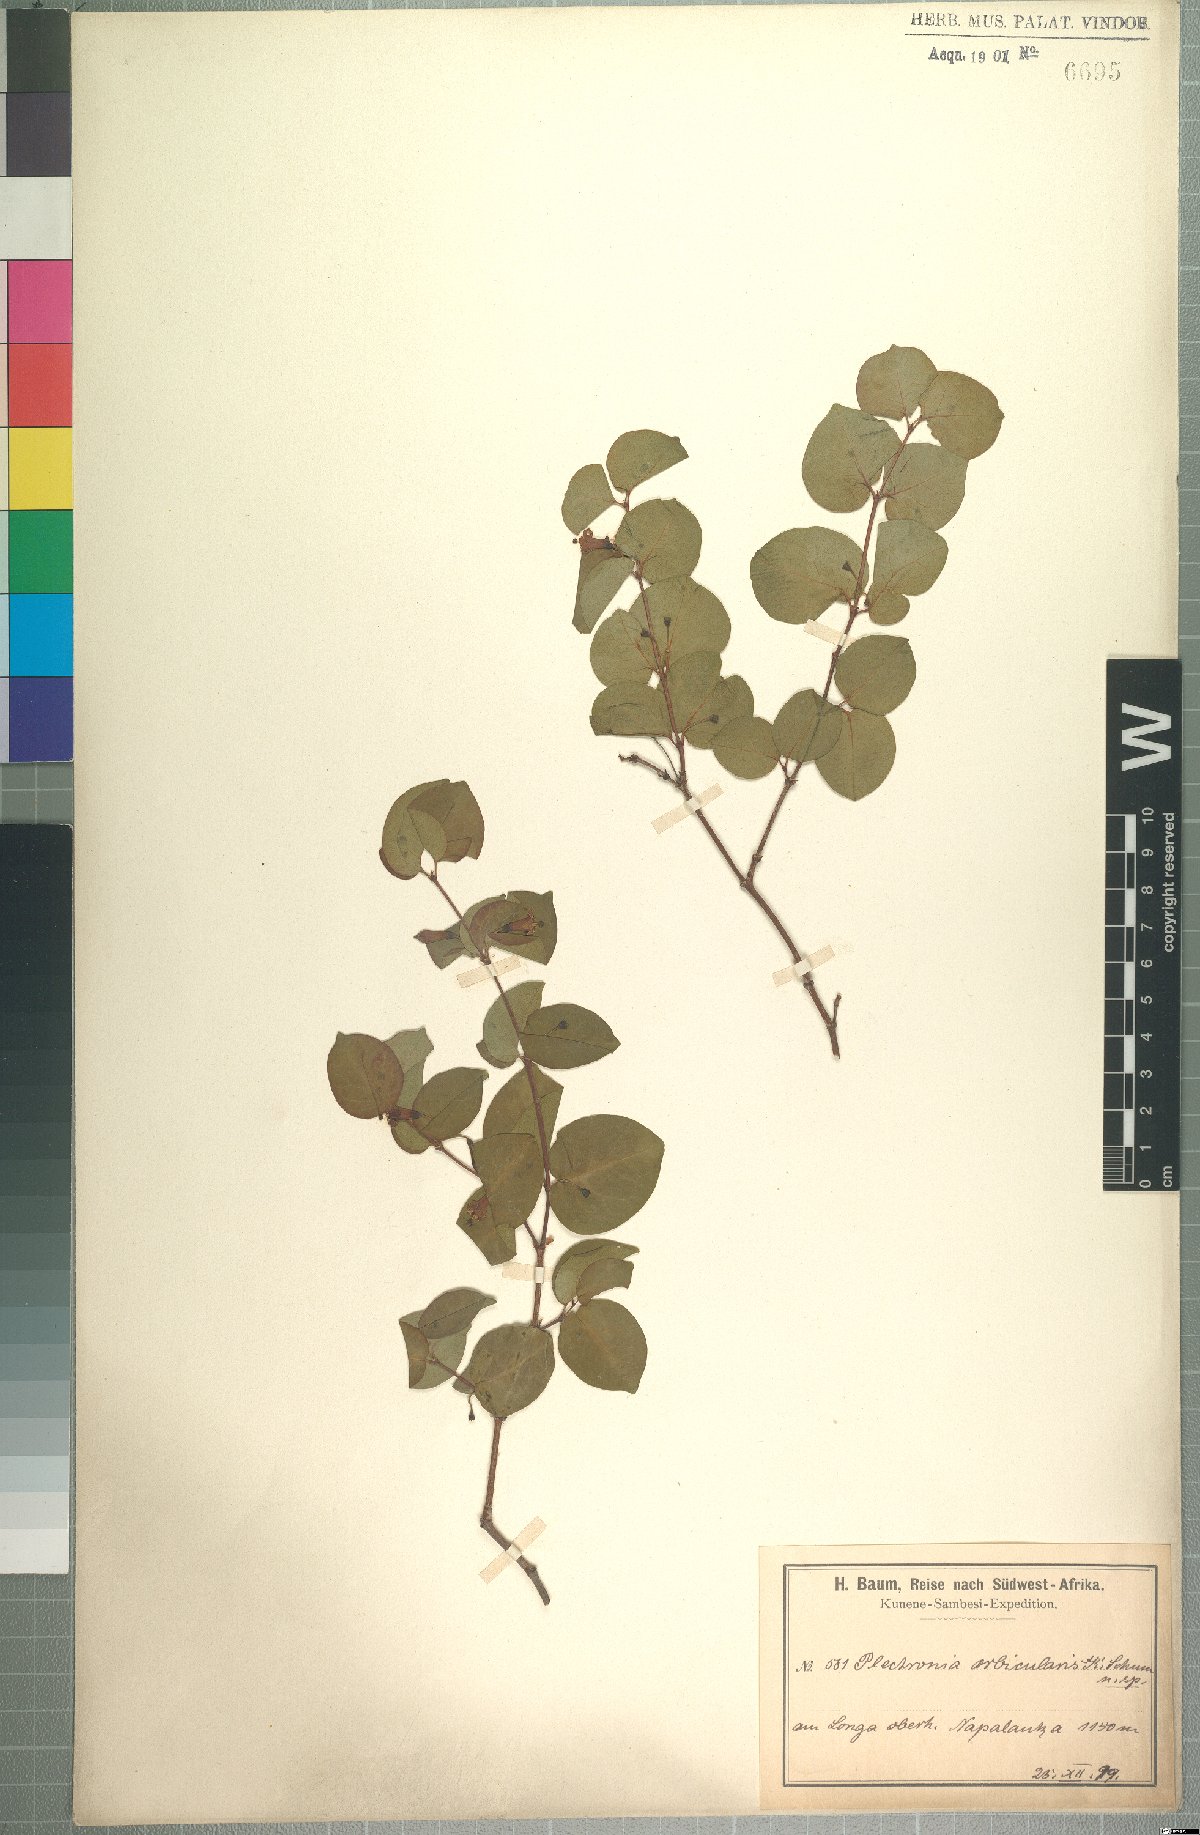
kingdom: Plantae
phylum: Tracheophyta
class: Magnoliopsida
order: Gentianales
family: Rubiaceae
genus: Rytigynia
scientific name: Rytigynia orbicularis
